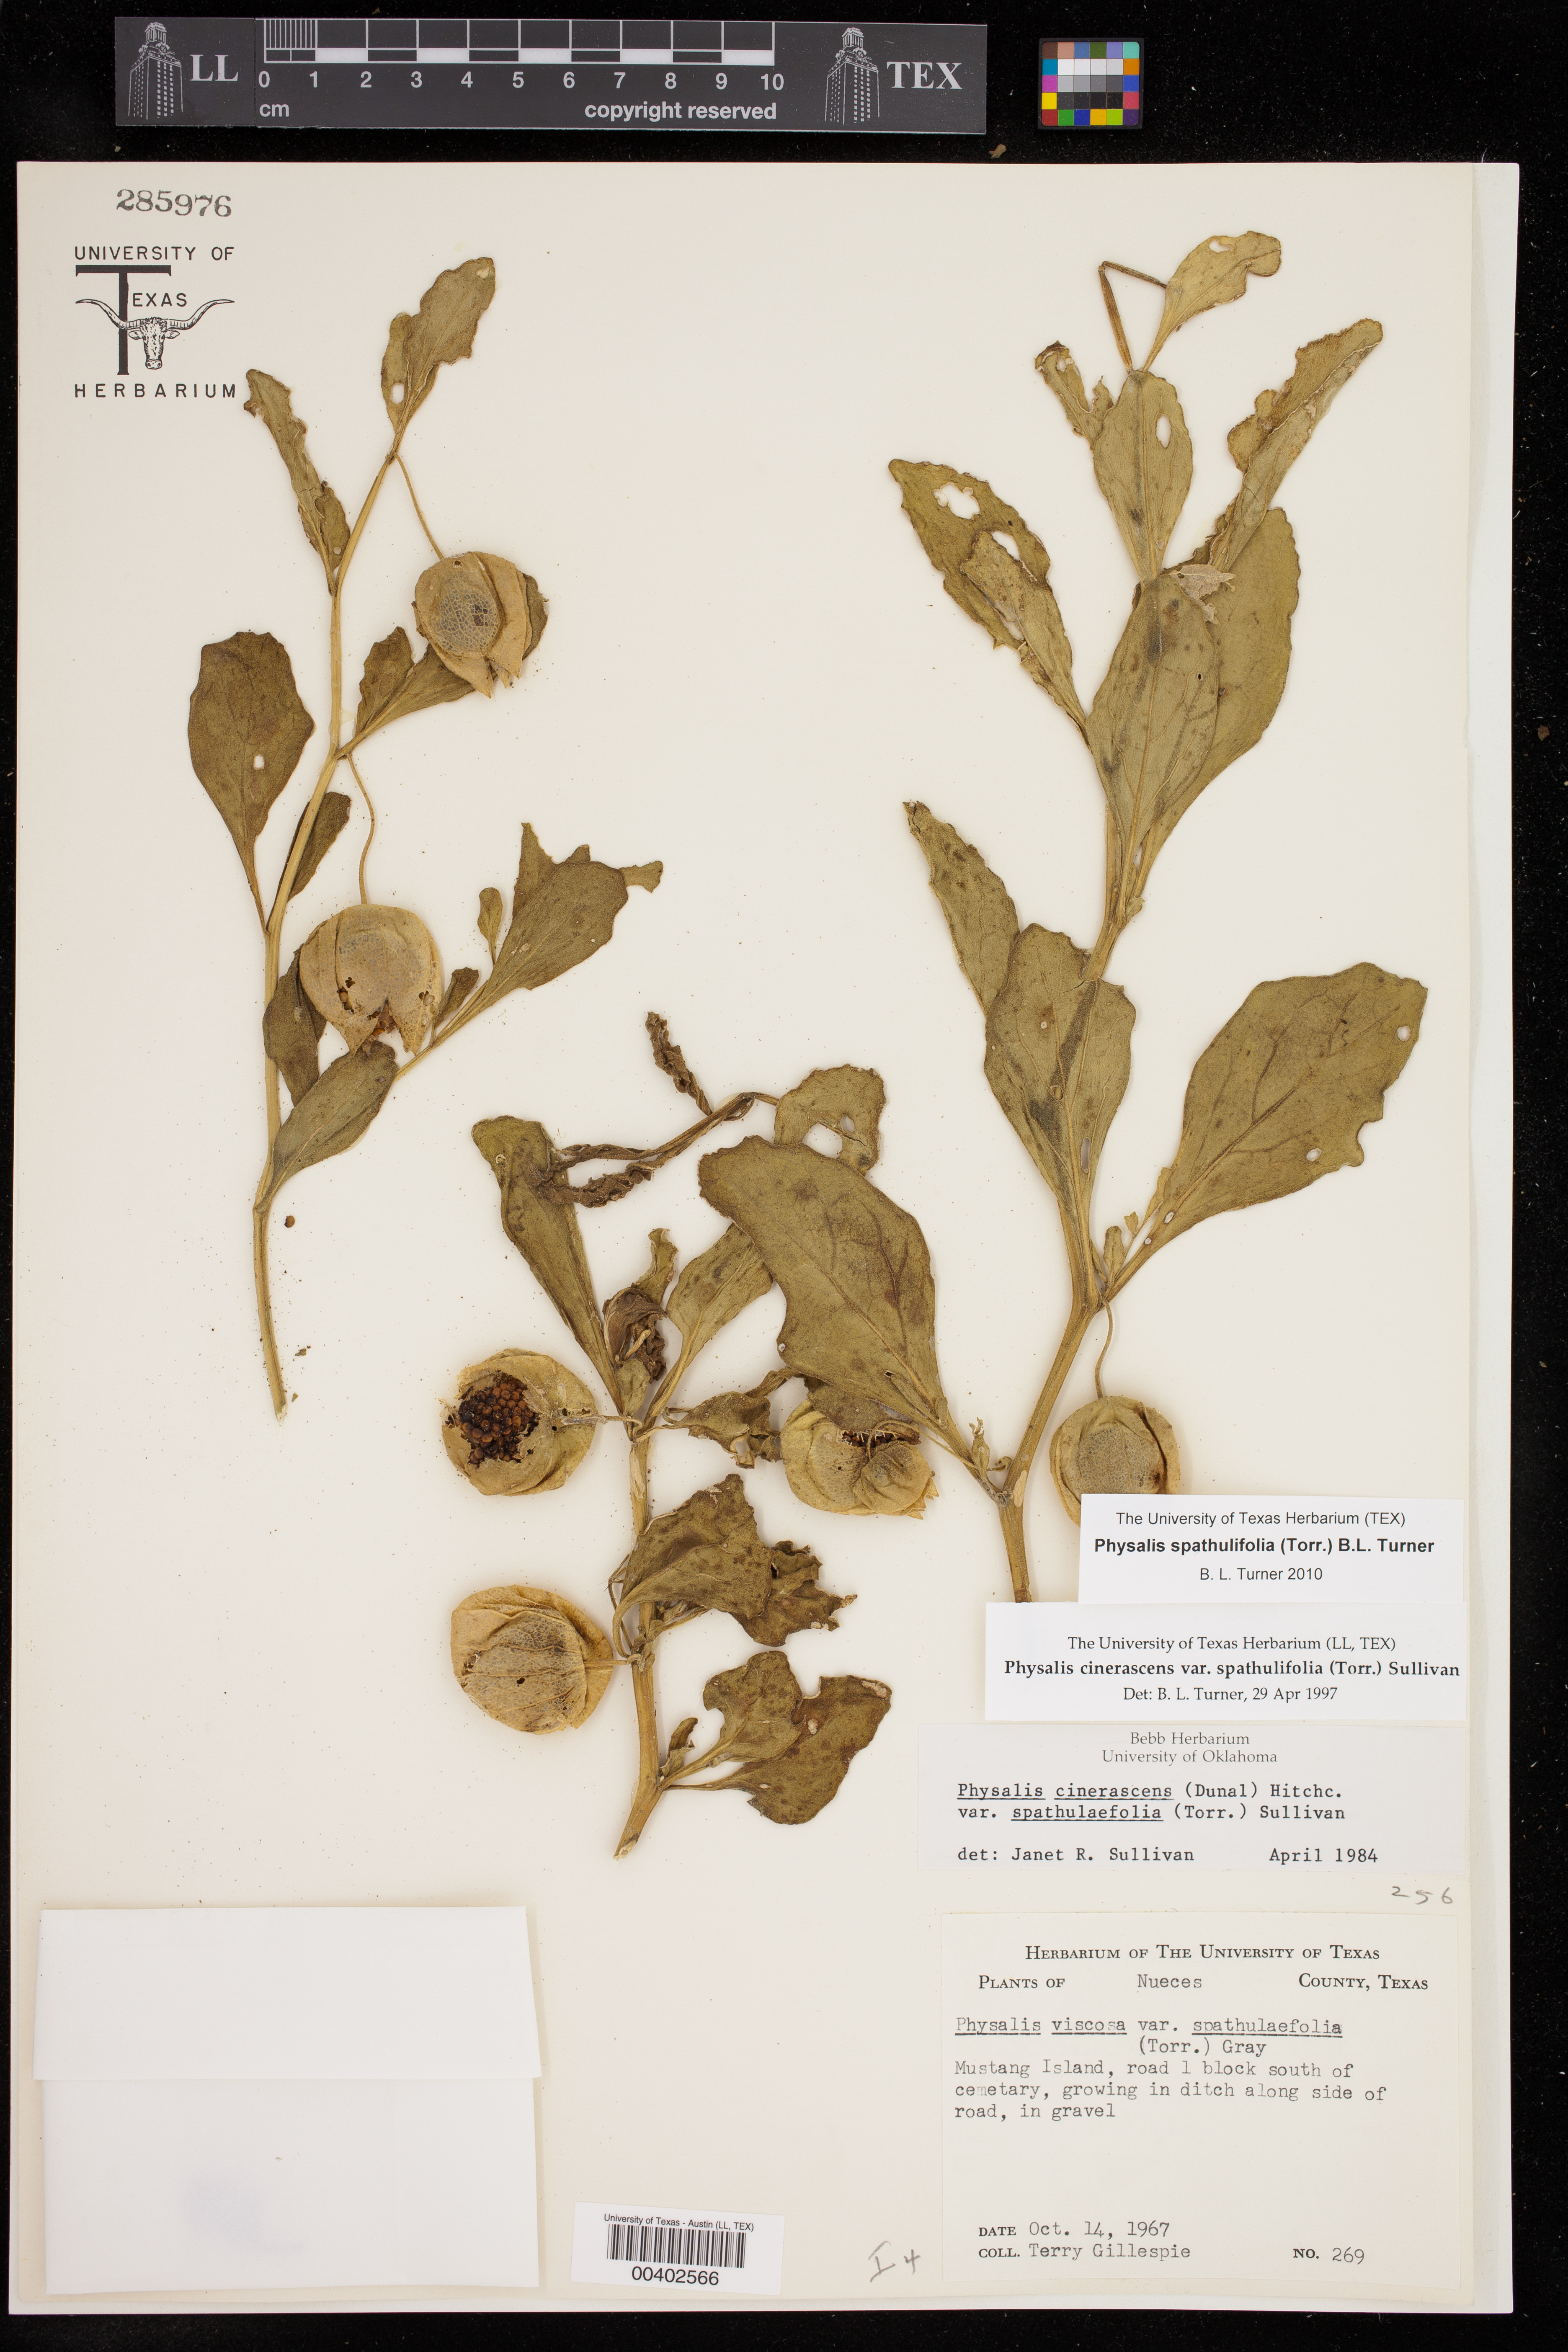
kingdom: Plantae
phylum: Tracheophyta
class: Magnoliopsida
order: Solanales
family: Solanaceae
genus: Physalis
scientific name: Physalis cinerascens
